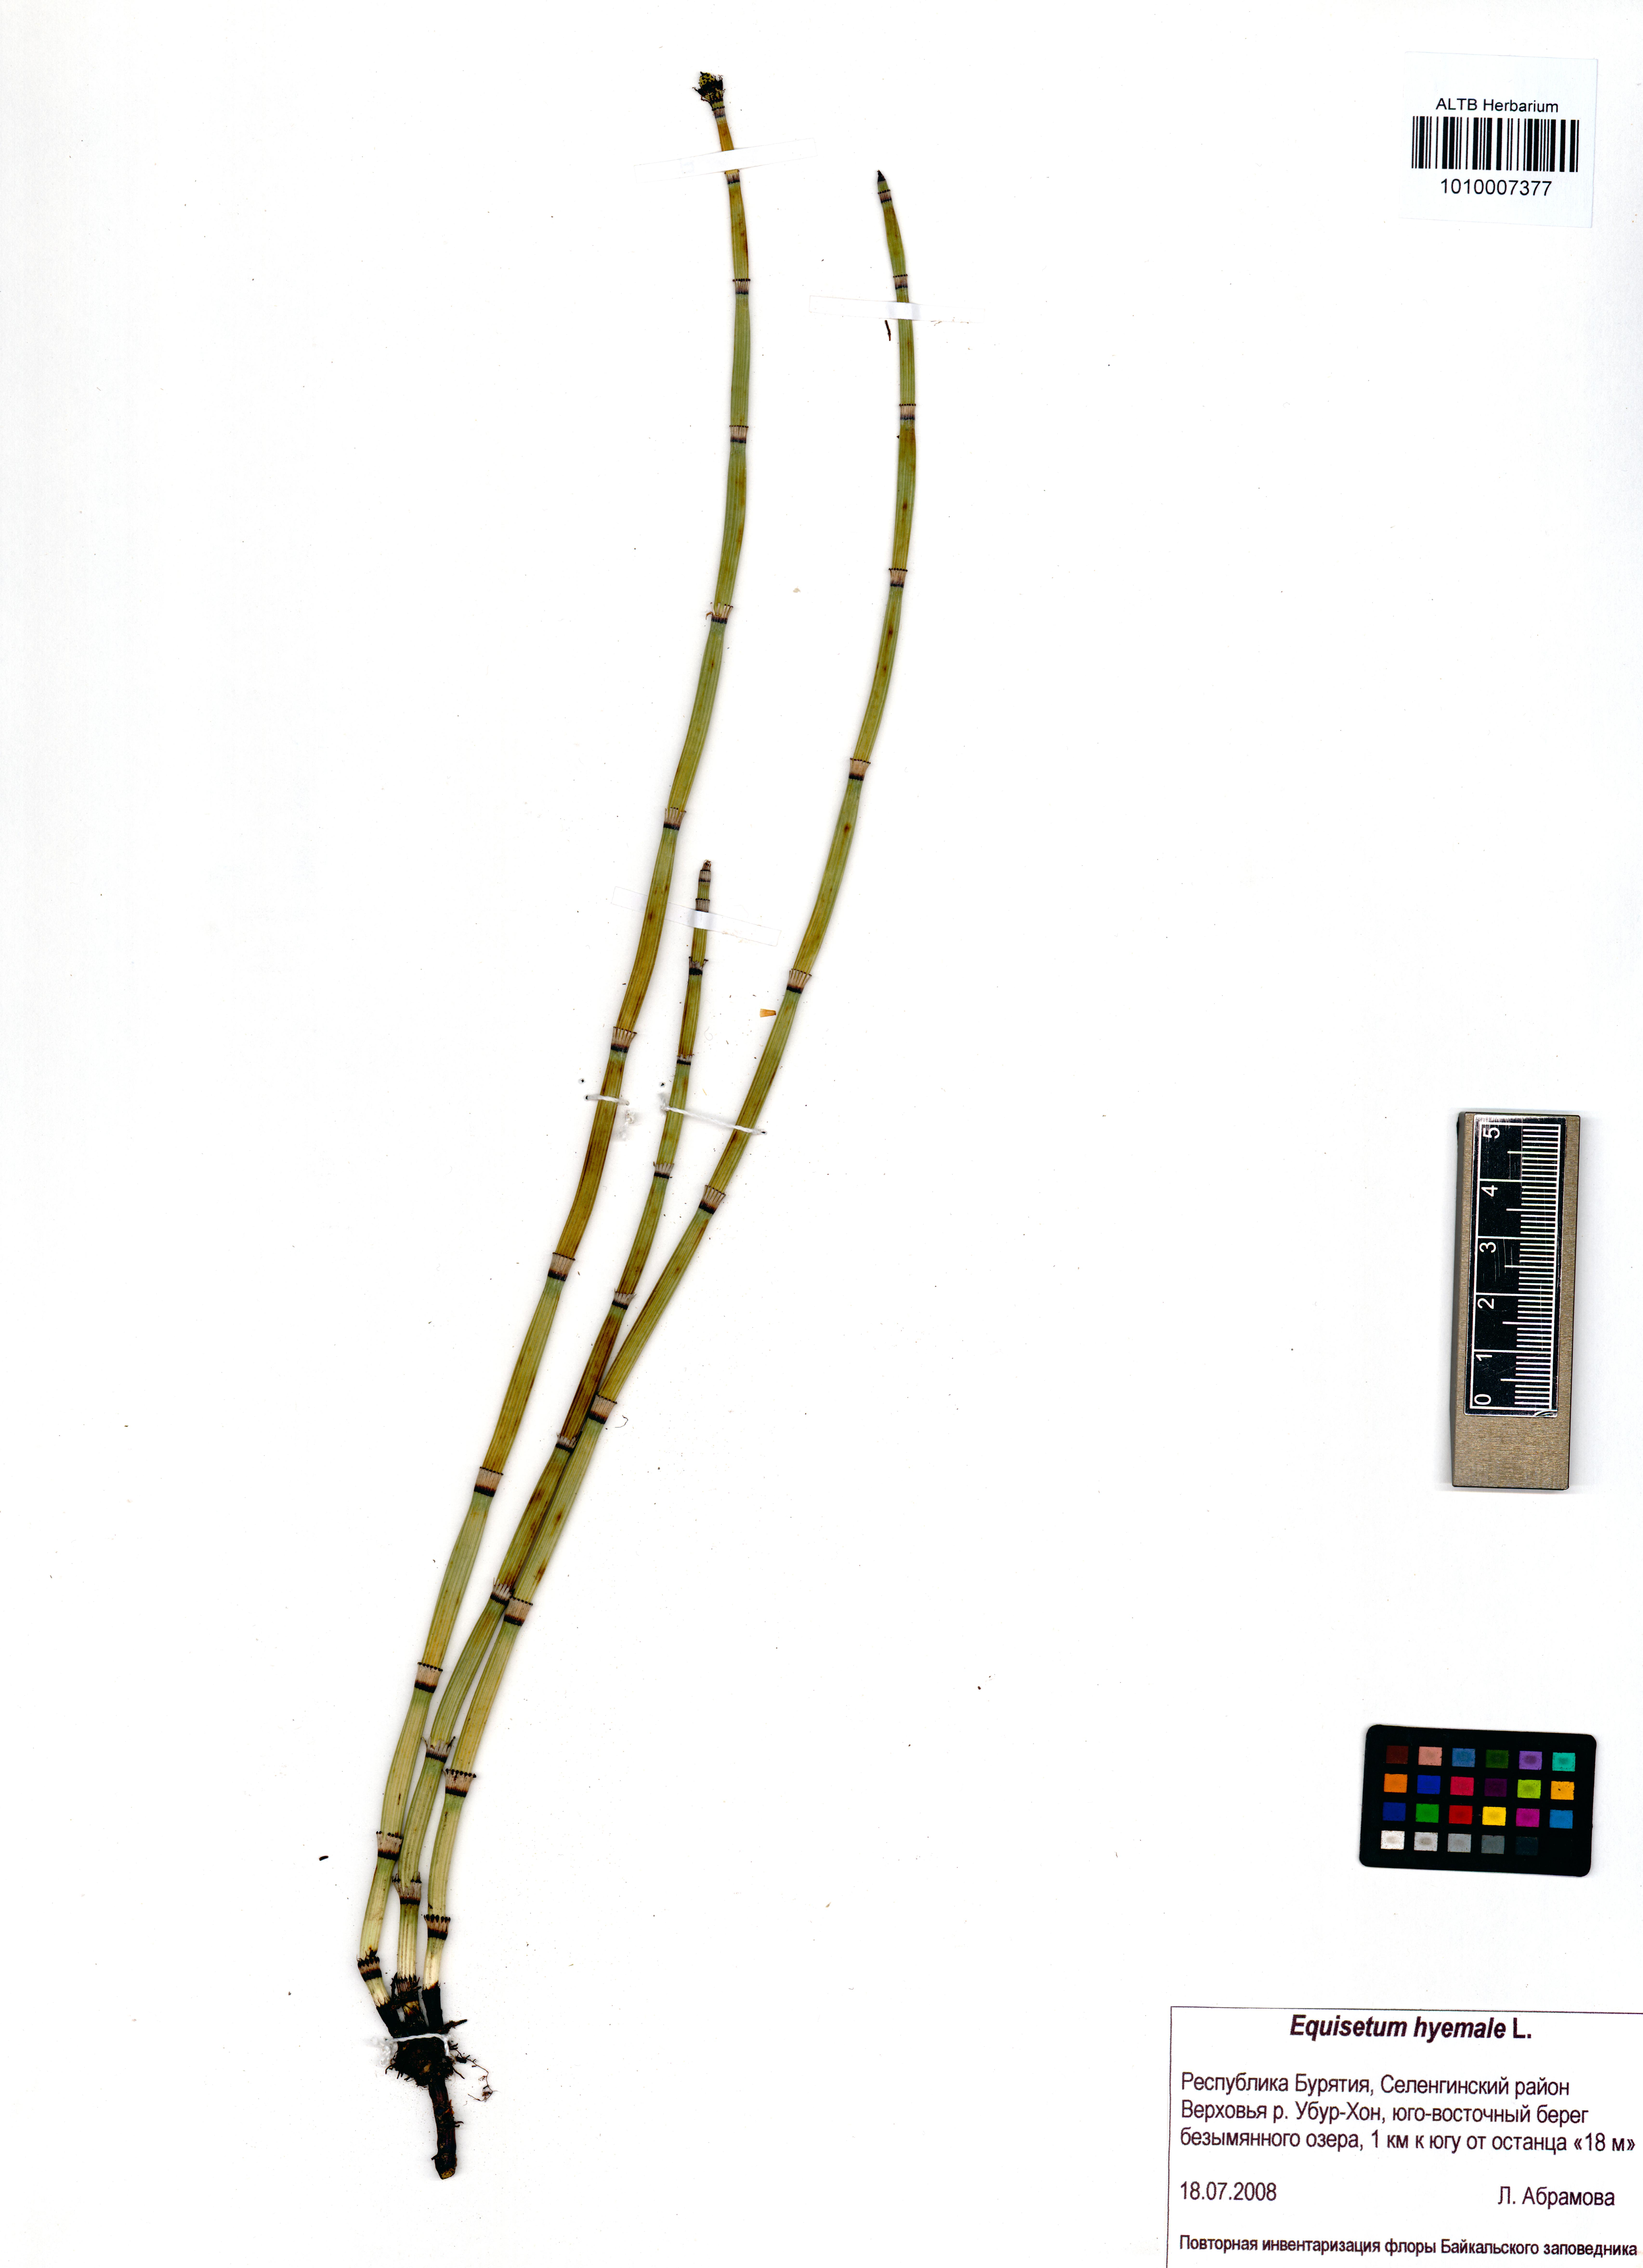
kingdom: Plantae
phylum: Tracheophyta
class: Polypodiopsida
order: Equisetales
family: Equisetaceae
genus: Equisetum
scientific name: Equisetum hyemale
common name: Rough horsetail
